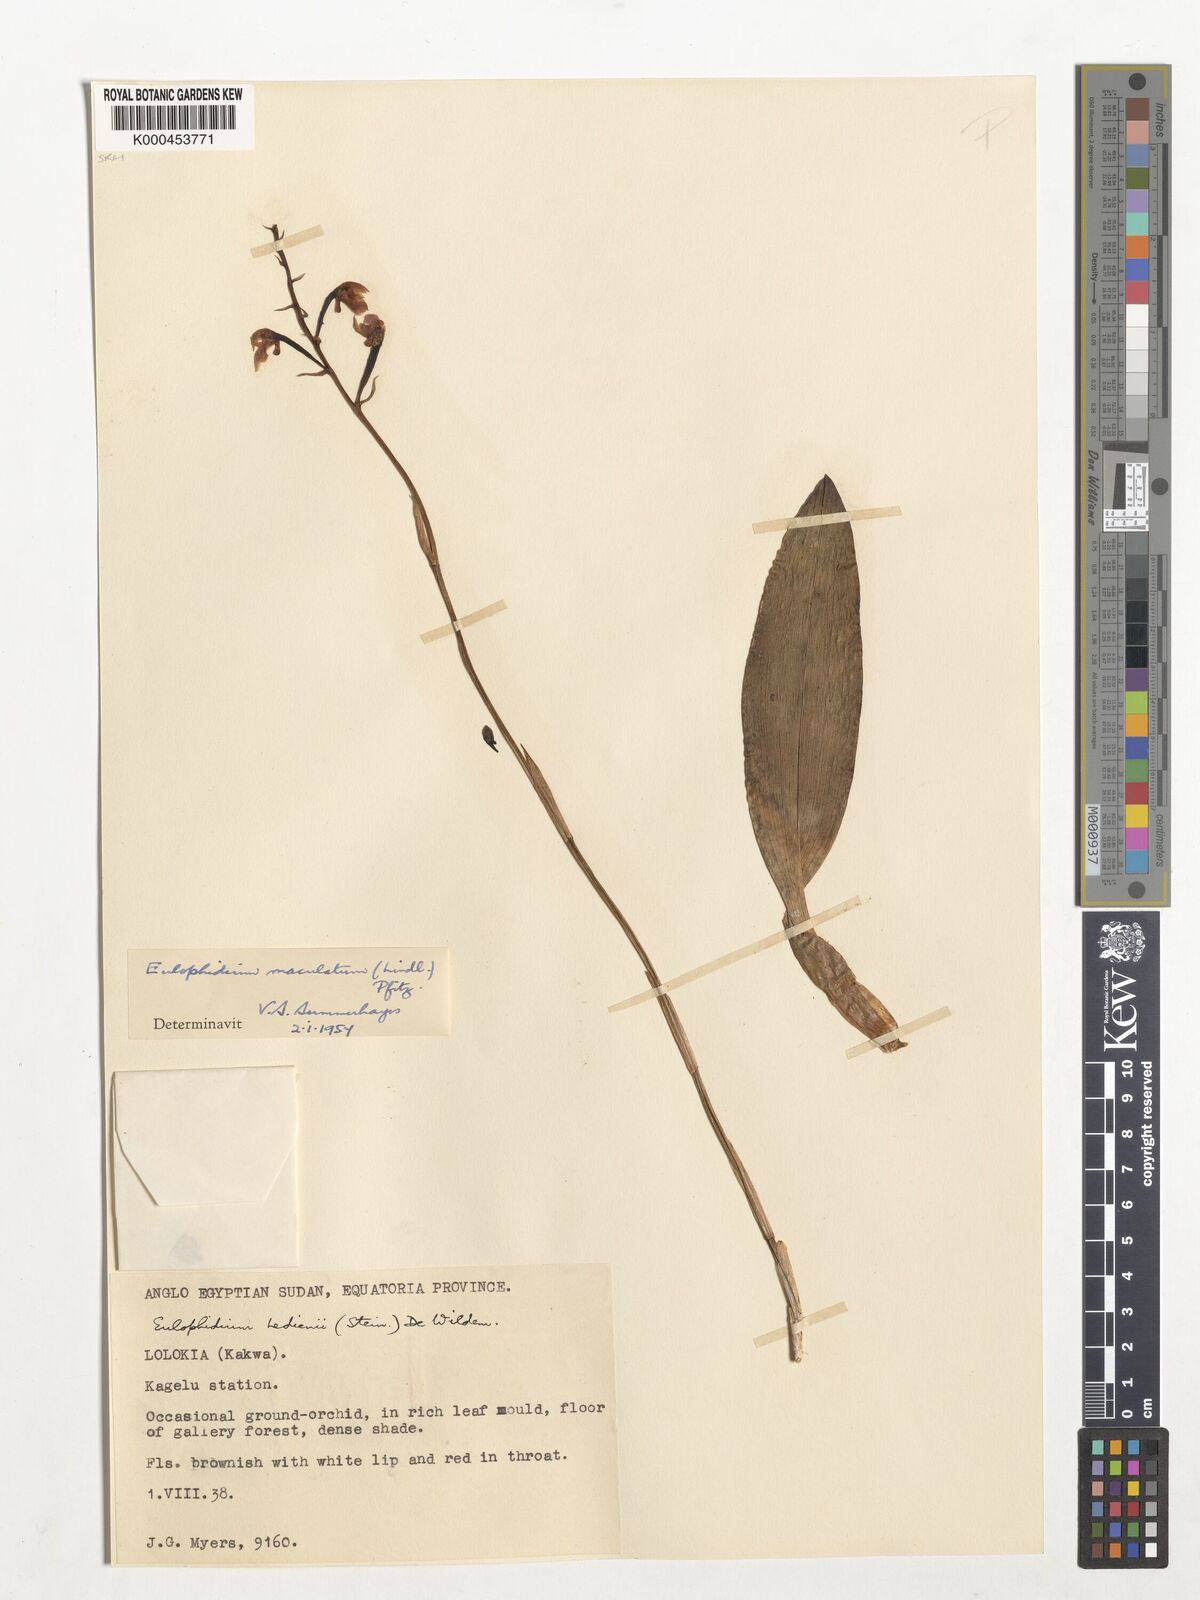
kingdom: Plantae
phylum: Tracheophyta
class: Liliopsida
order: Asparagales
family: Orchidaceae
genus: Eulophia
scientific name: Eulophia maculata
